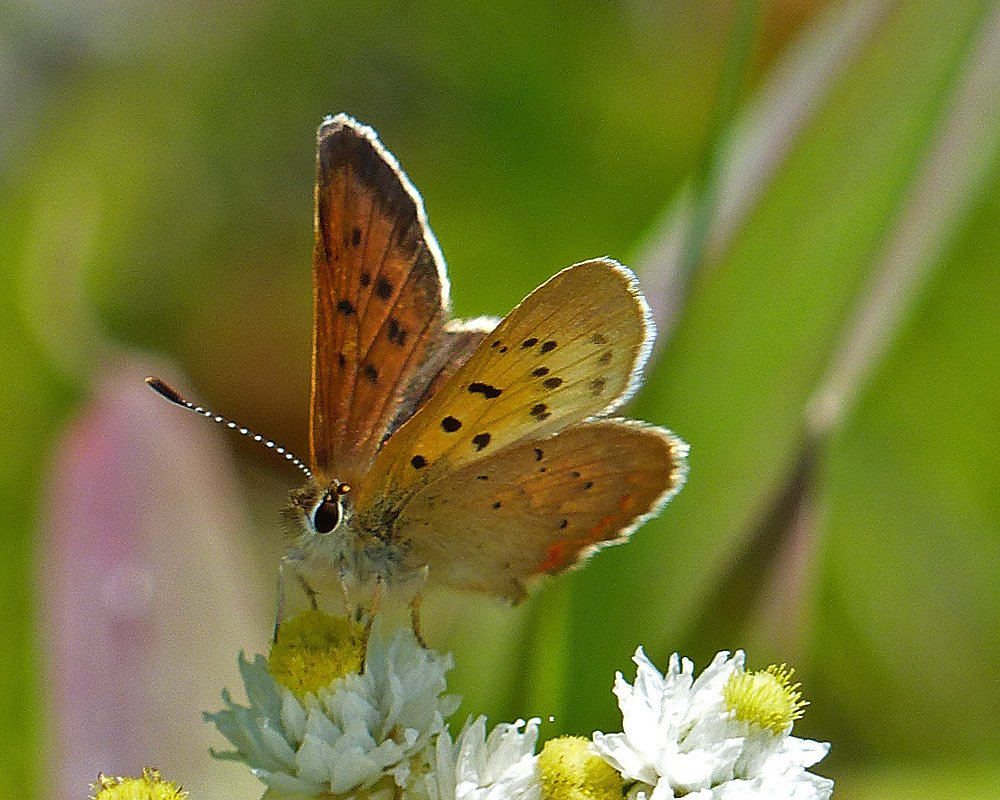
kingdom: Animalia
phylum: Arthropoda
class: Insecta
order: Lepidoptera
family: Sesiidae
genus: Sesia
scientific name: Sesia Lycaena helloides
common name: Purplish Copper
